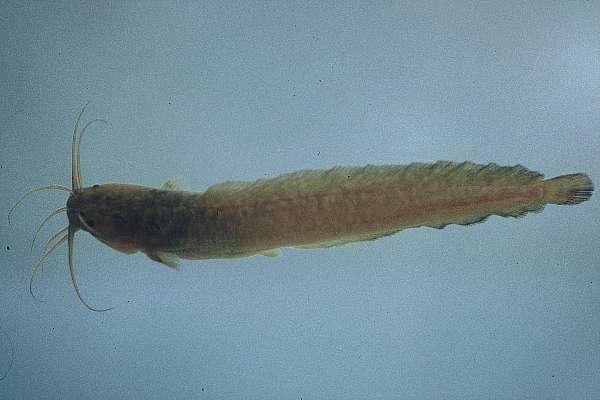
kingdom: Animalia
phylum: Chordata
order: Siluriformes
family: Clariidae
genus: Clarias
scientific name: Clarias theodorae
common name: Snake catfish
